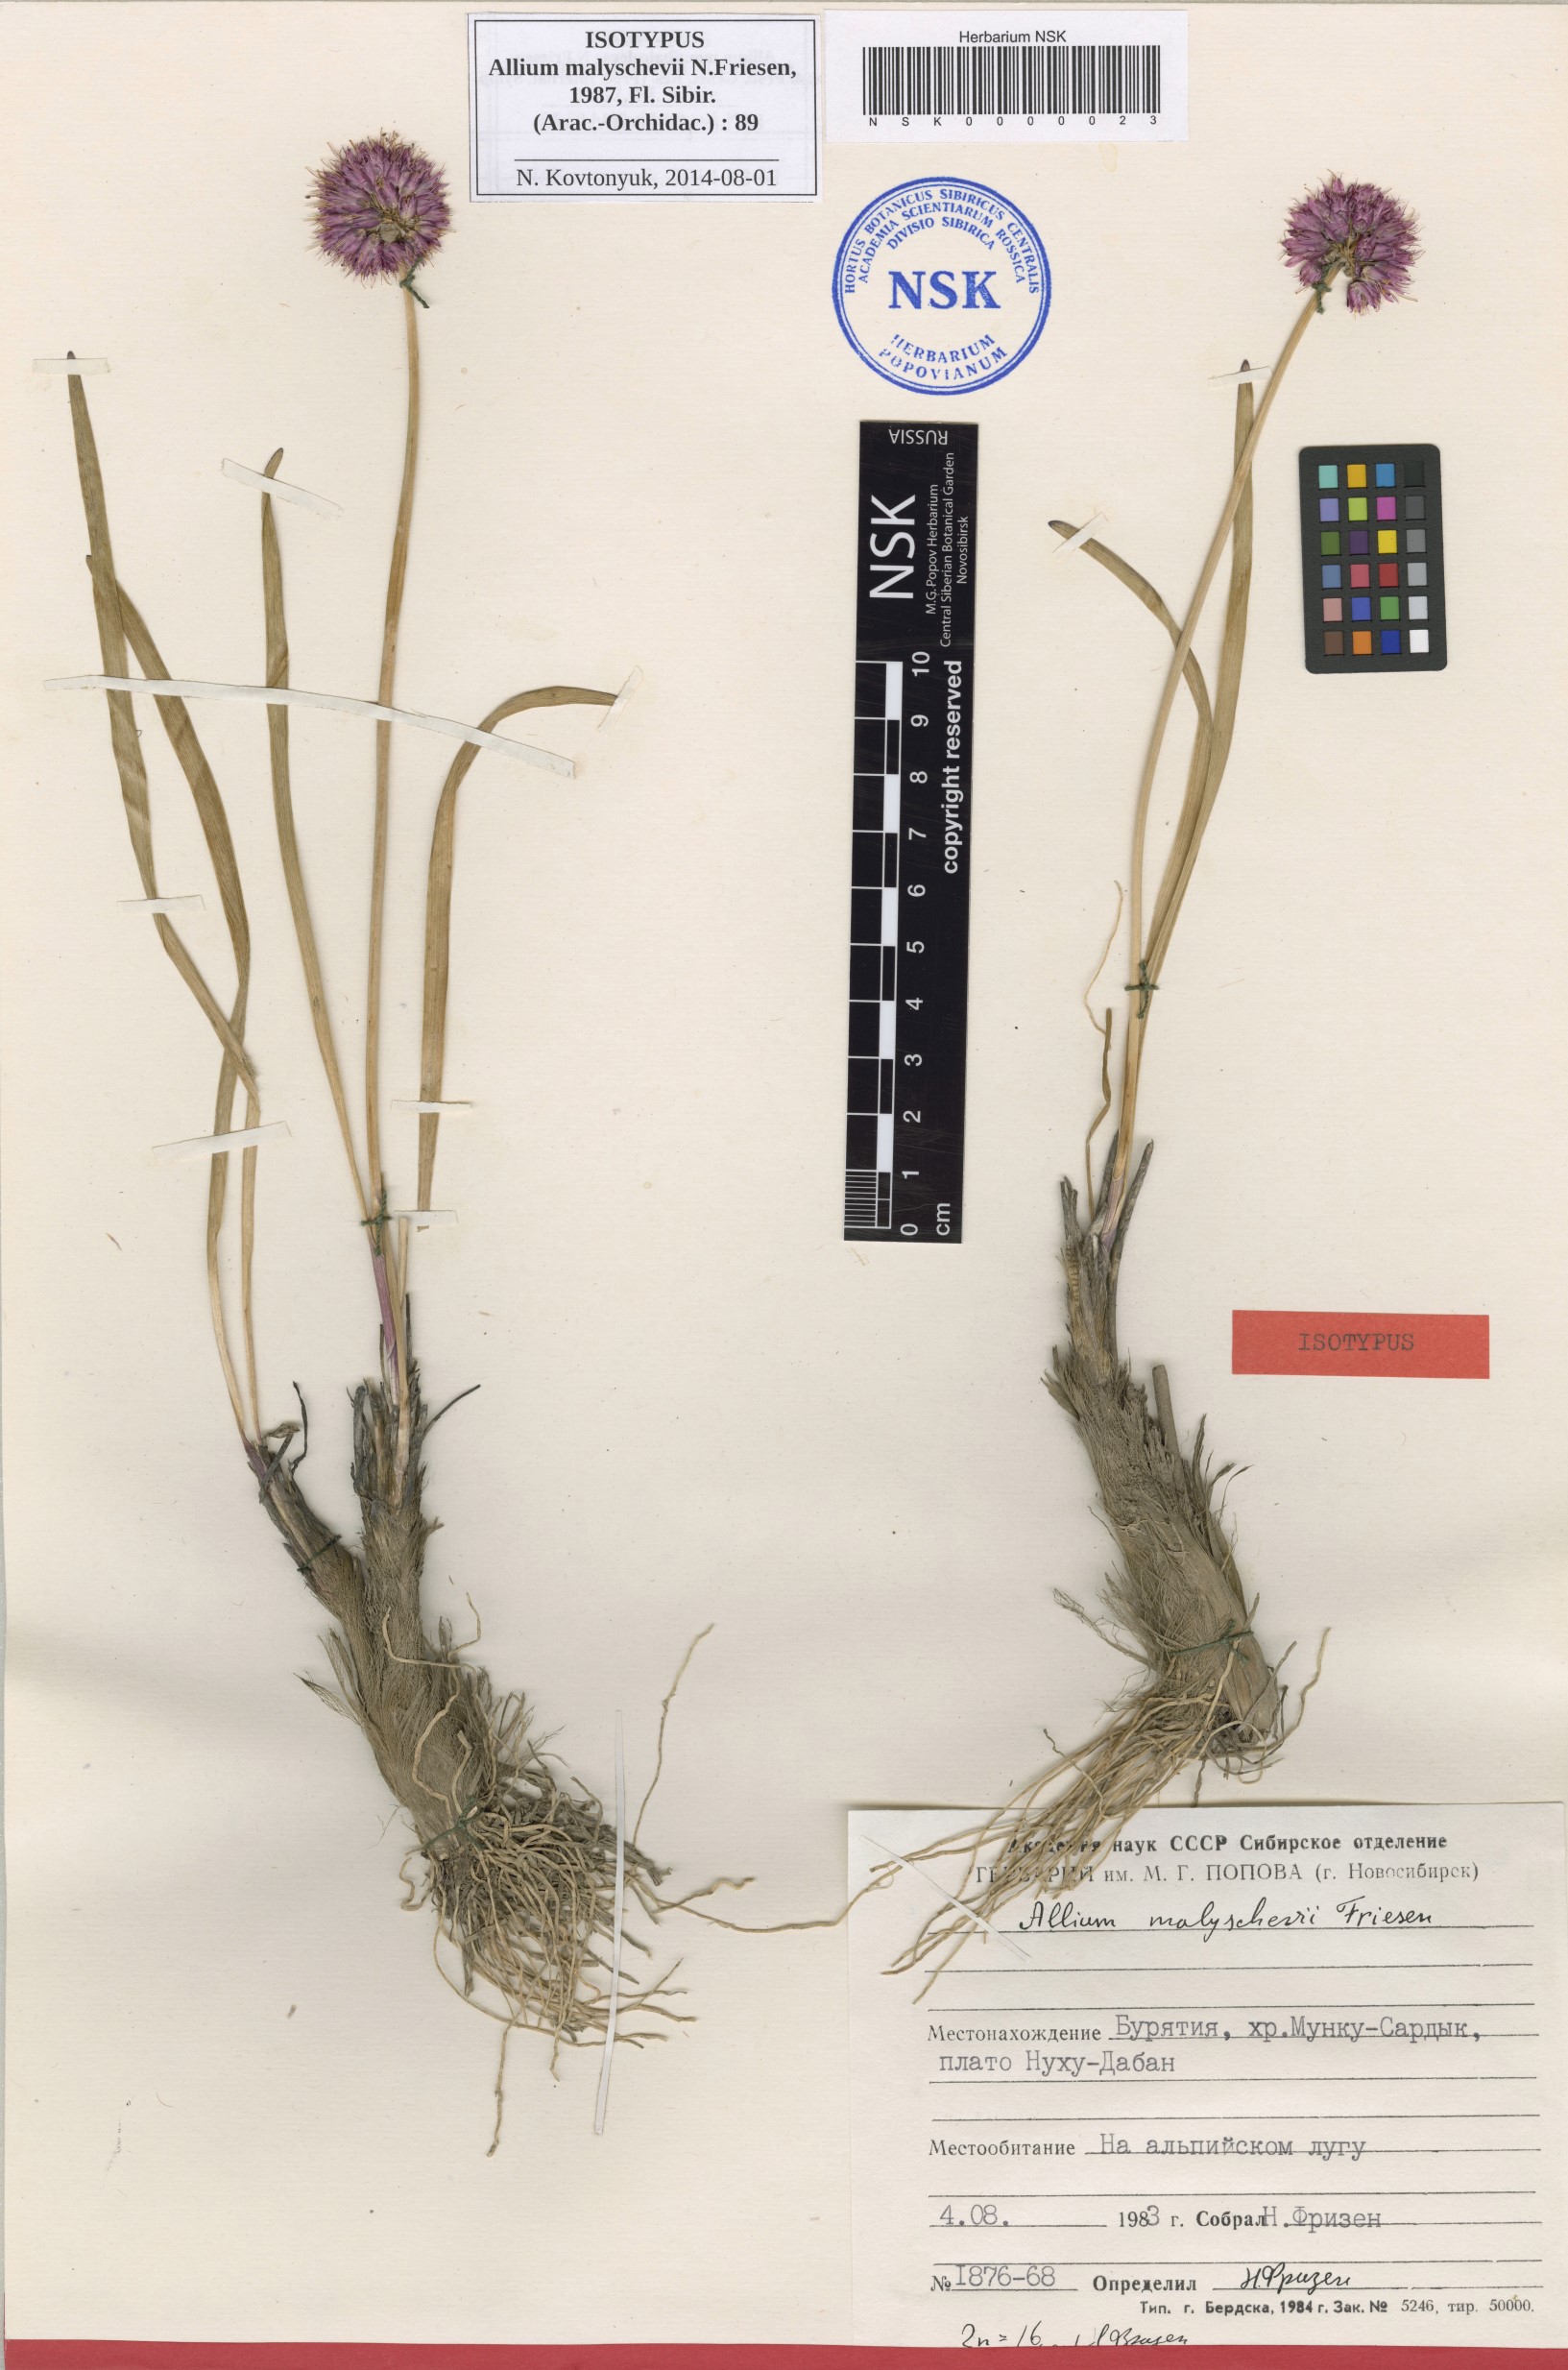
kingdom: Plantae
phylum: Tracheophyta
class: Liliopsida
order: Asparagales
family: Amaryllidaceae
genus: Allium
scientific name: Allium malyschevii
